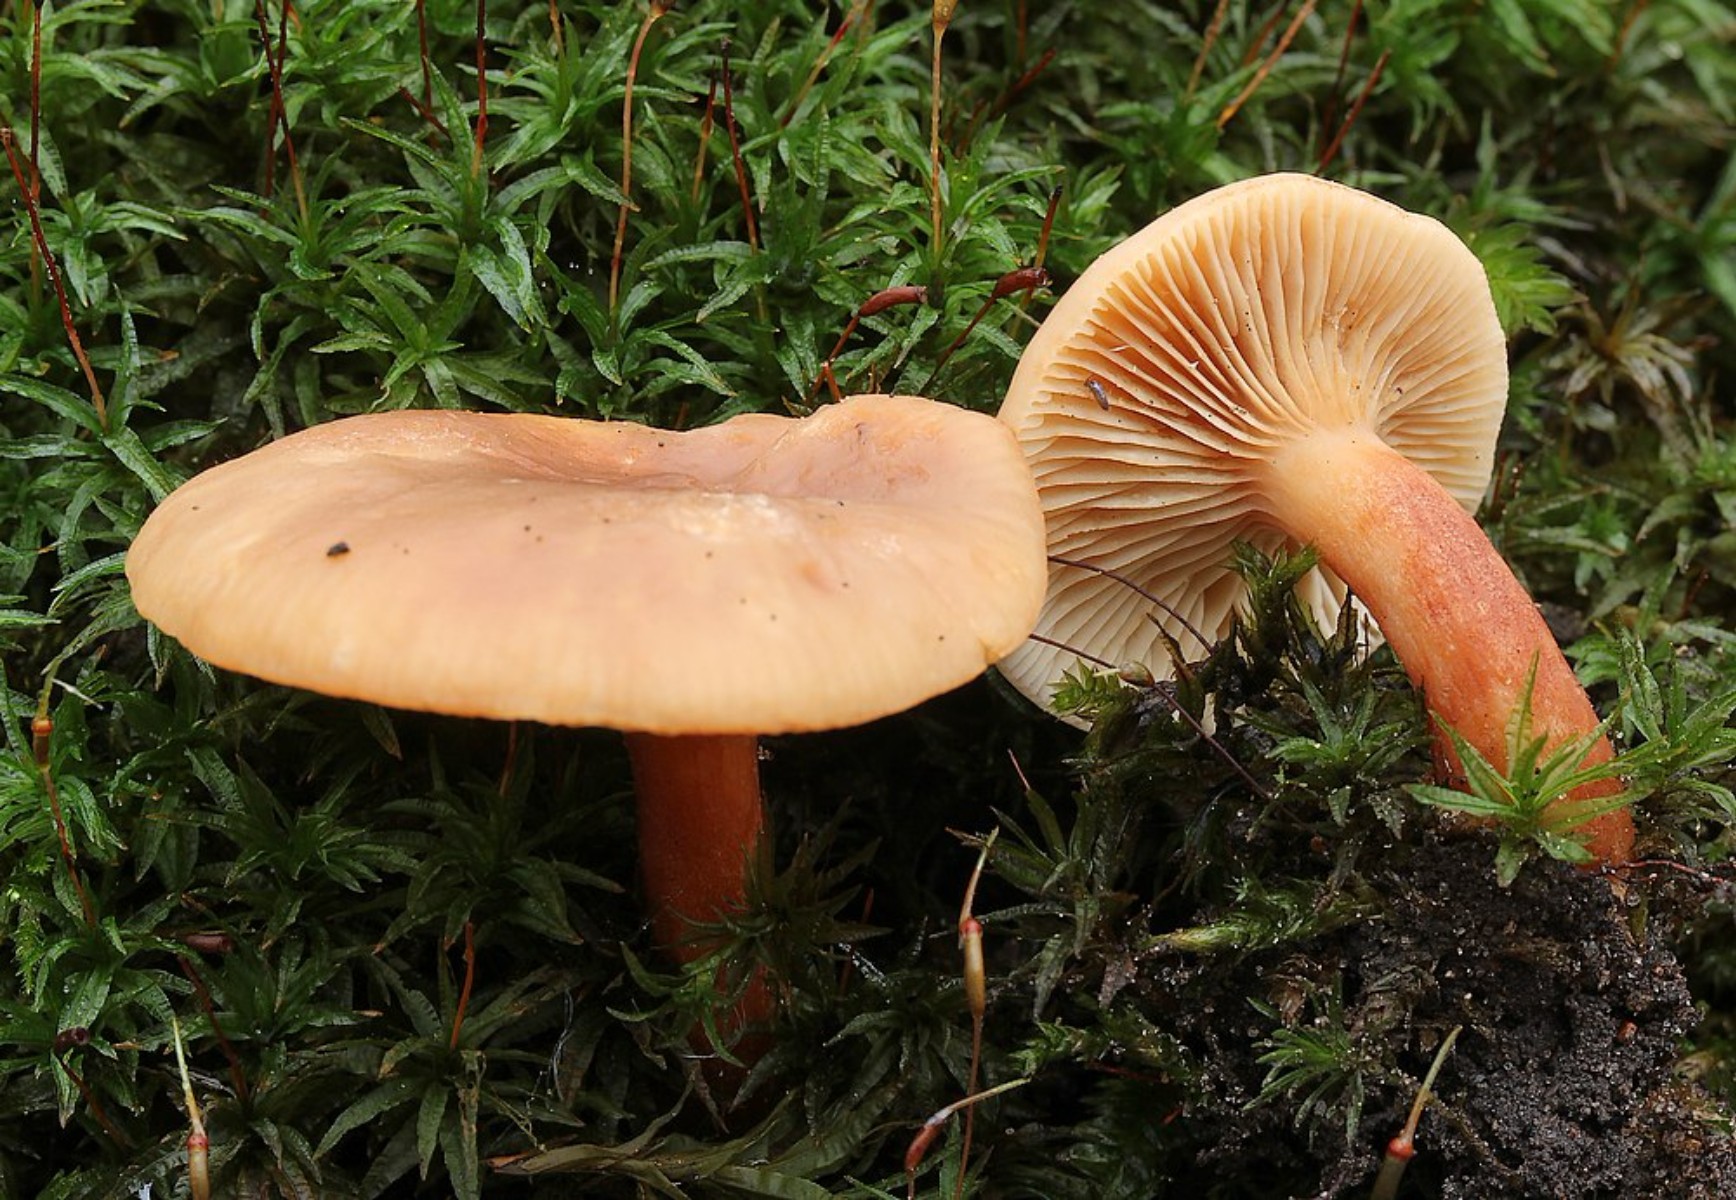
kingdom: Fungi
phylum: Basidiomycota
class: Agaricomycetes
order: Russulales
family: Russulaceae
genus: Lactarius
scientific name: Lactarius
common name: mælkehat
